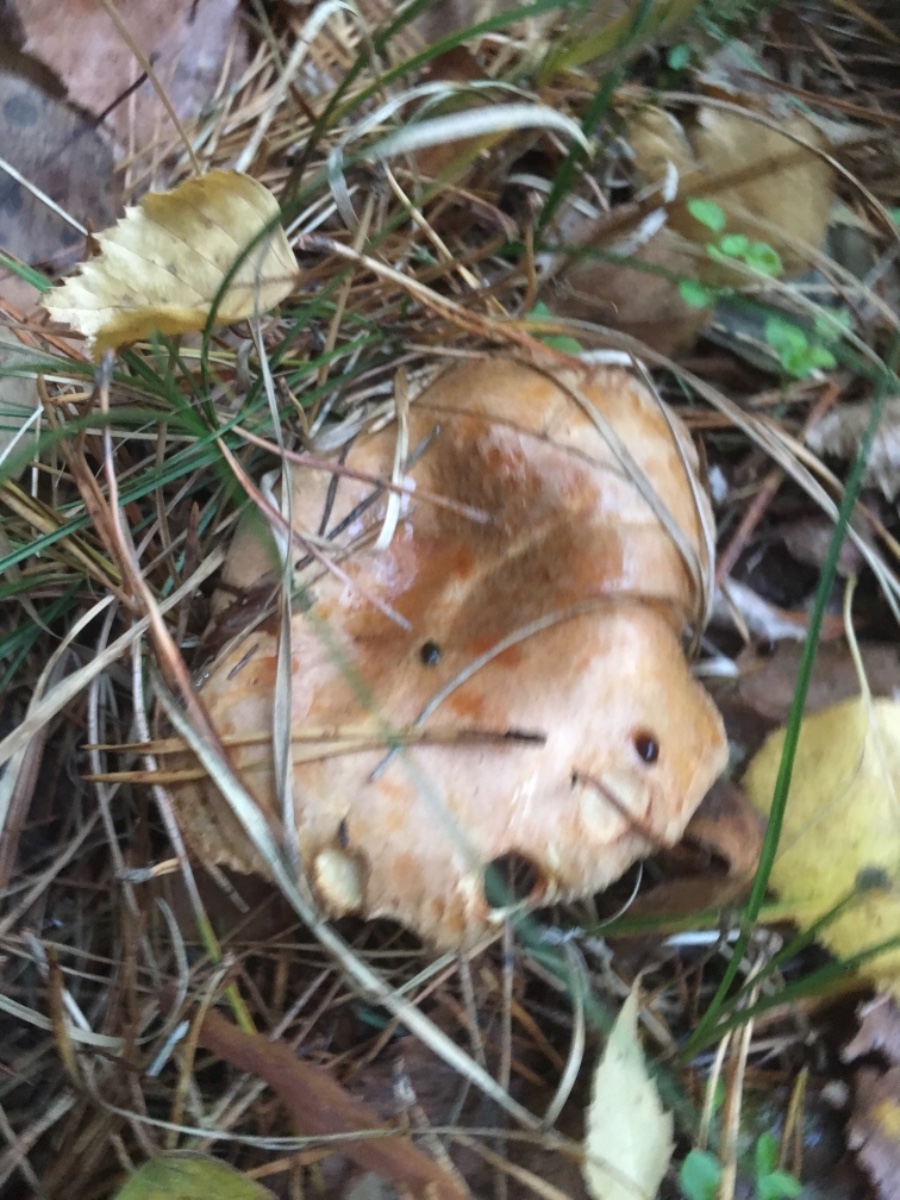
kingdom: Fungi
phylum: Basidiomycota
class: Agaricomycetes
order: Boletales
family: Paxillaceae
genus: Paxillus
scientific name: Paxillus involutus
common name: almindelig netbladhat
